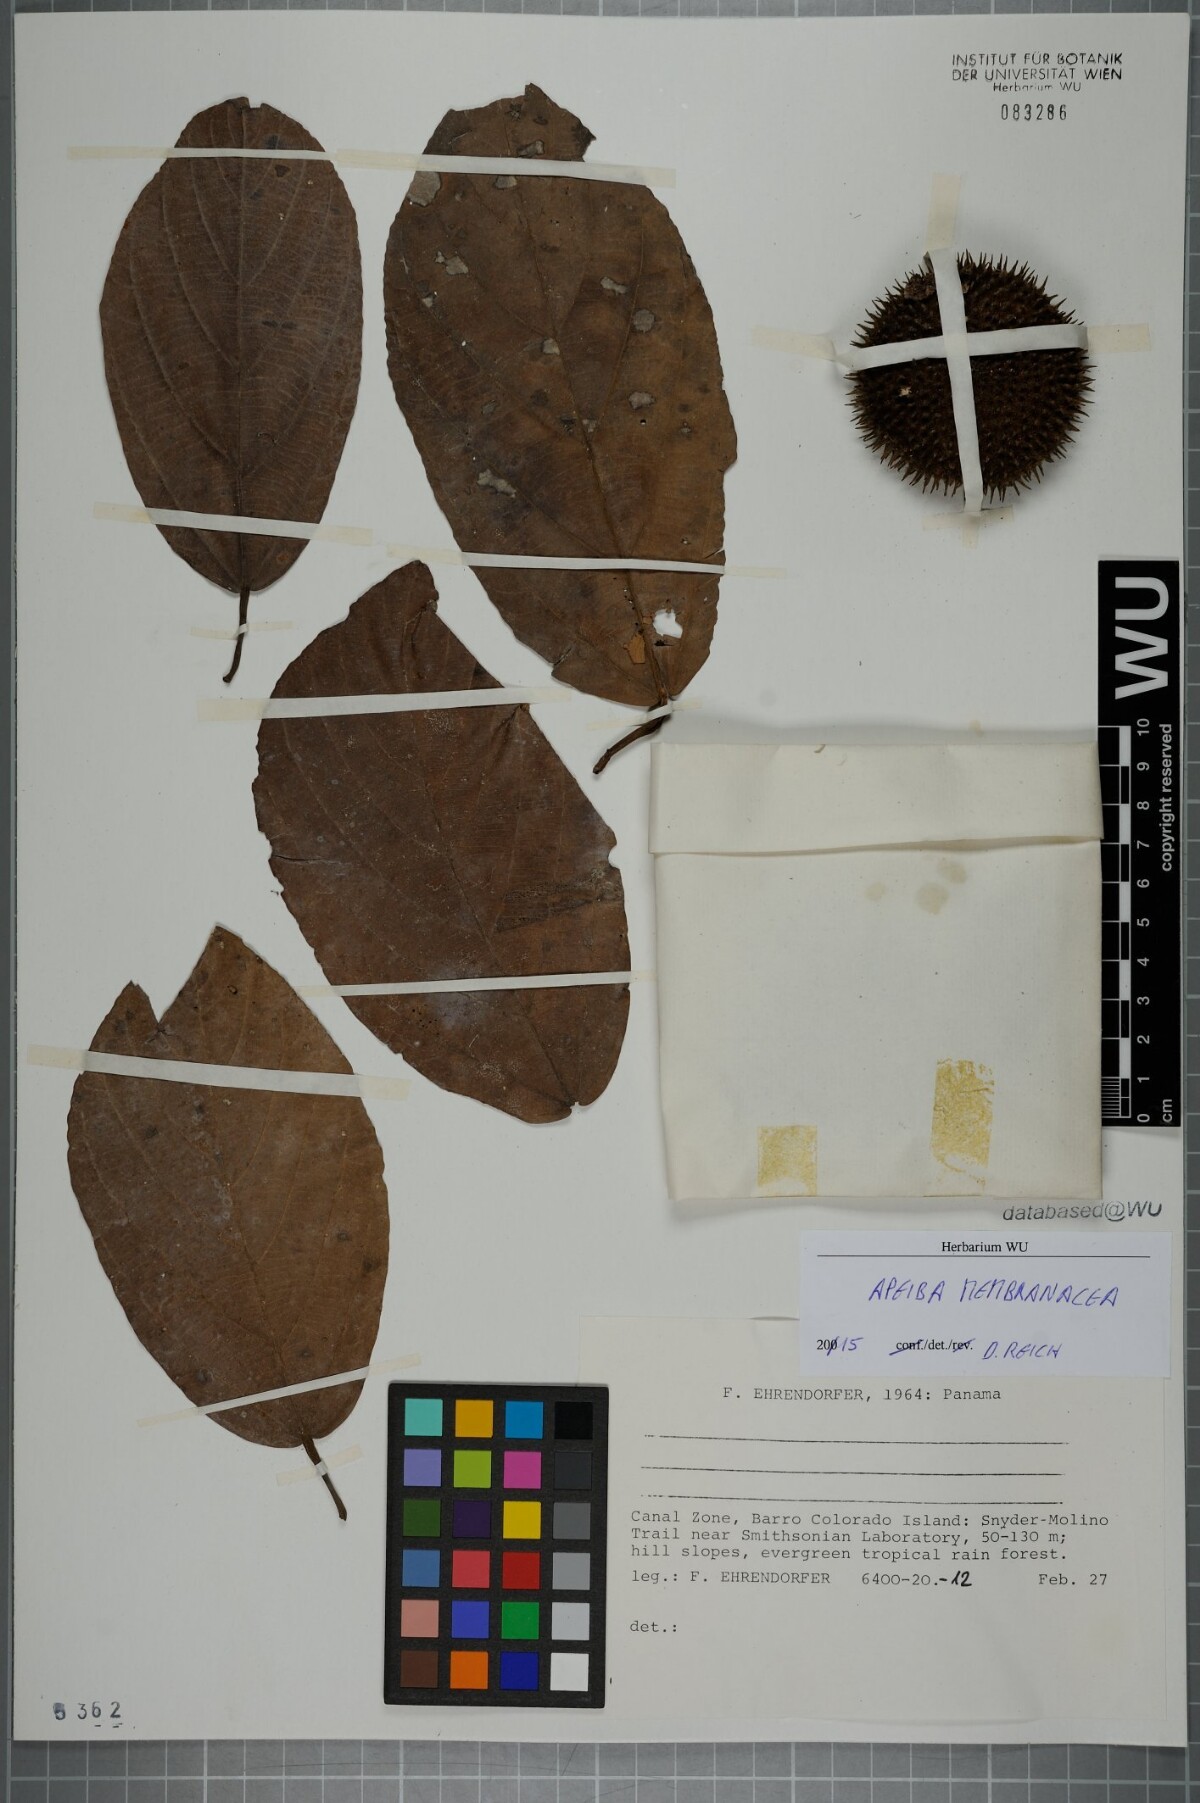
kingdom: Plantae
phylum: Tracheophyta
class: Magnoliopsida
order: Malvales
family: Malvaceae
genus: Apeiba
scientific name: Apeiba membranacea
